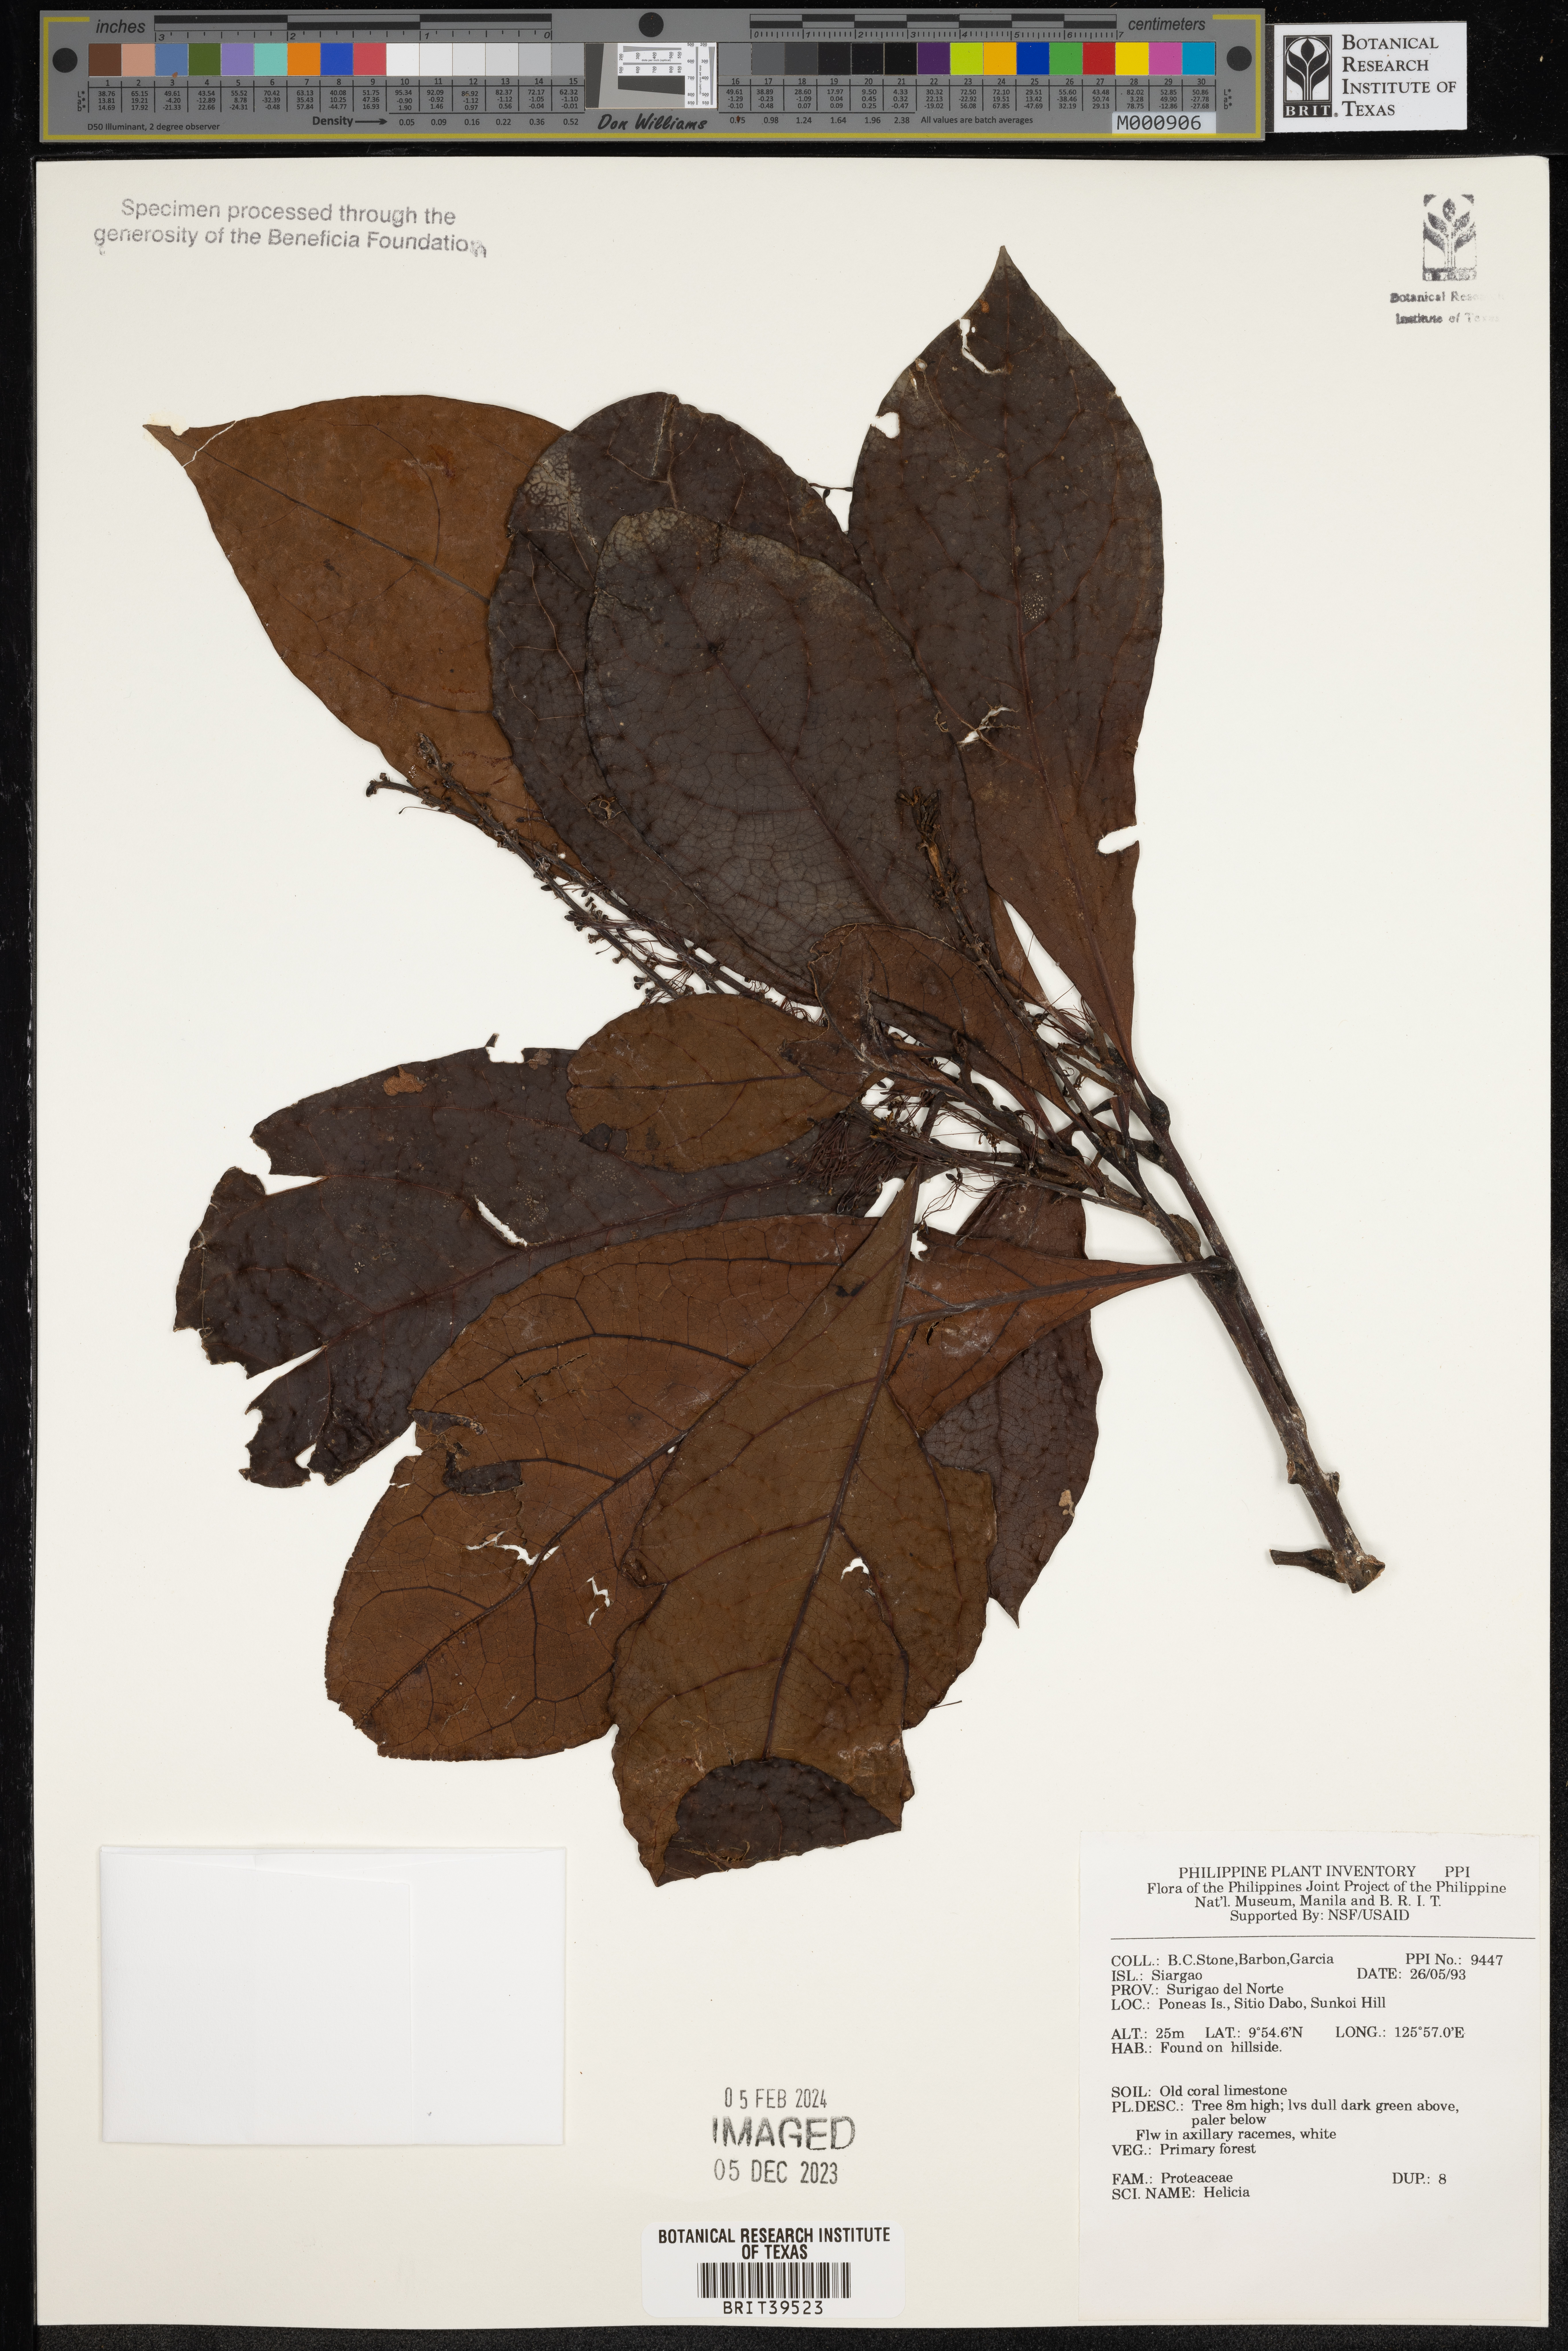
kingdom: Plantae
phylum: Tracheophyta
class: Magnoliopsida
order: Proteales
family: Proteaceae
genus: Helicia
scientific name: Helicia
